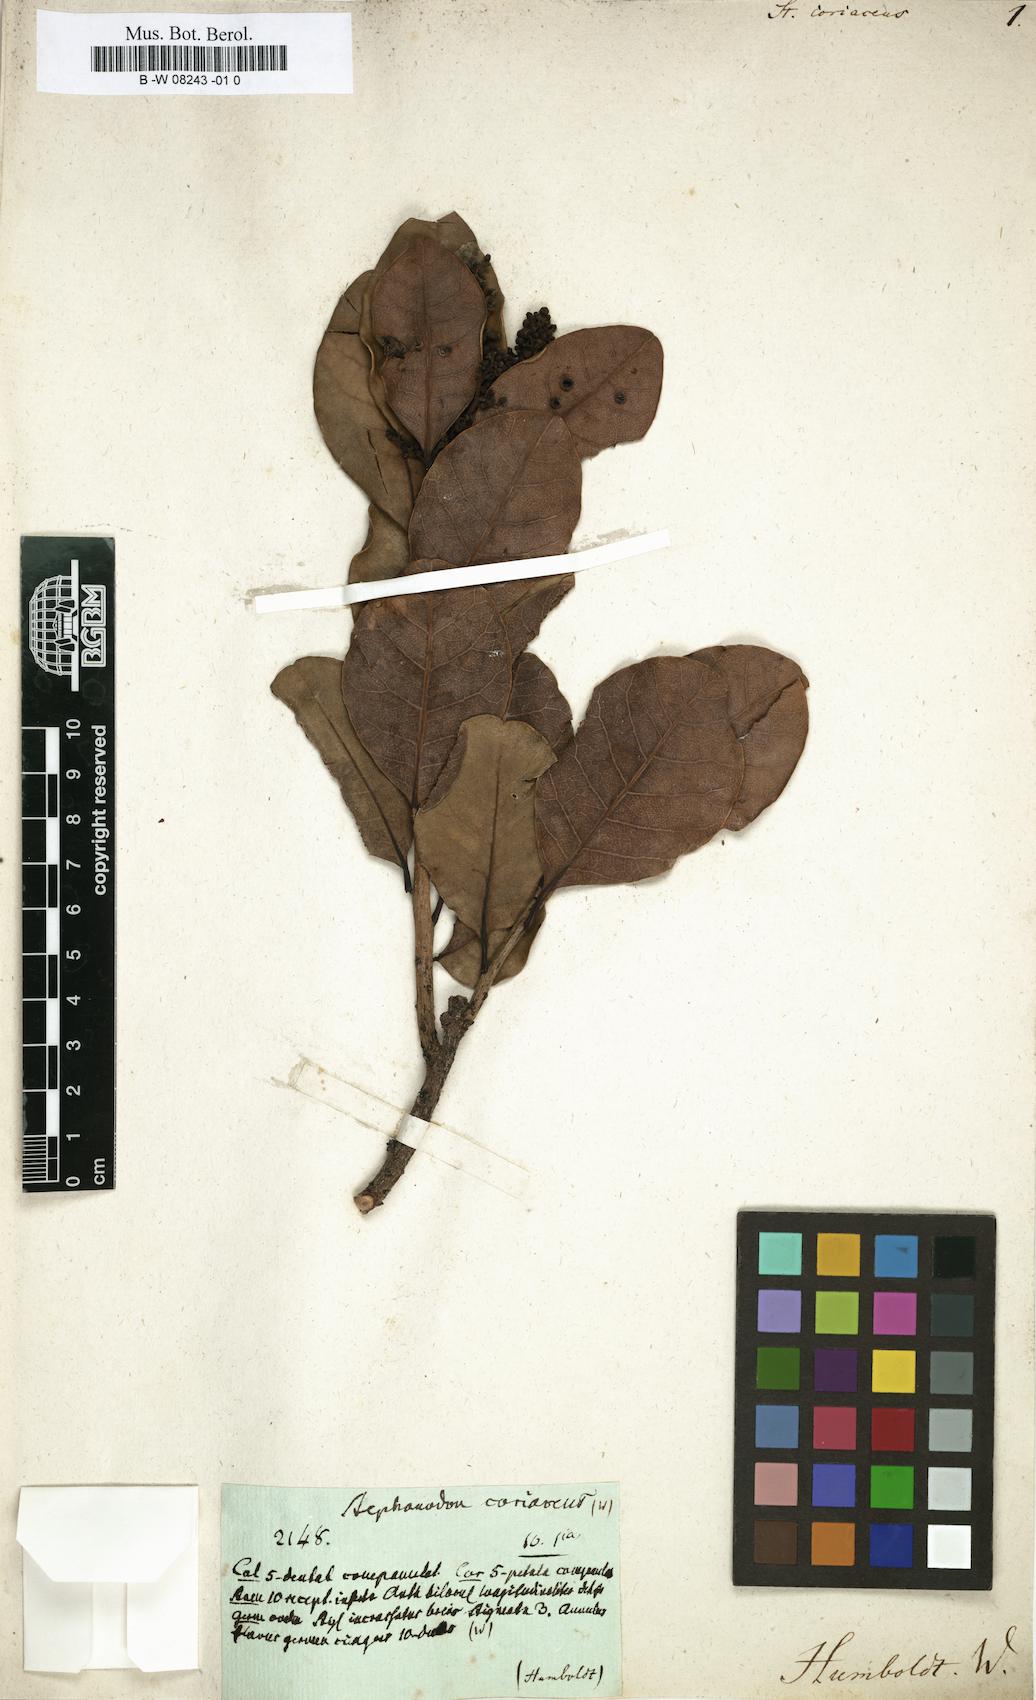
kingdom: Plantae
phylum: Tracheophyta
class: Magnoliopsida
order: Sapindales
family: Anacardiaceae
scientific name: Anacardiaceae
